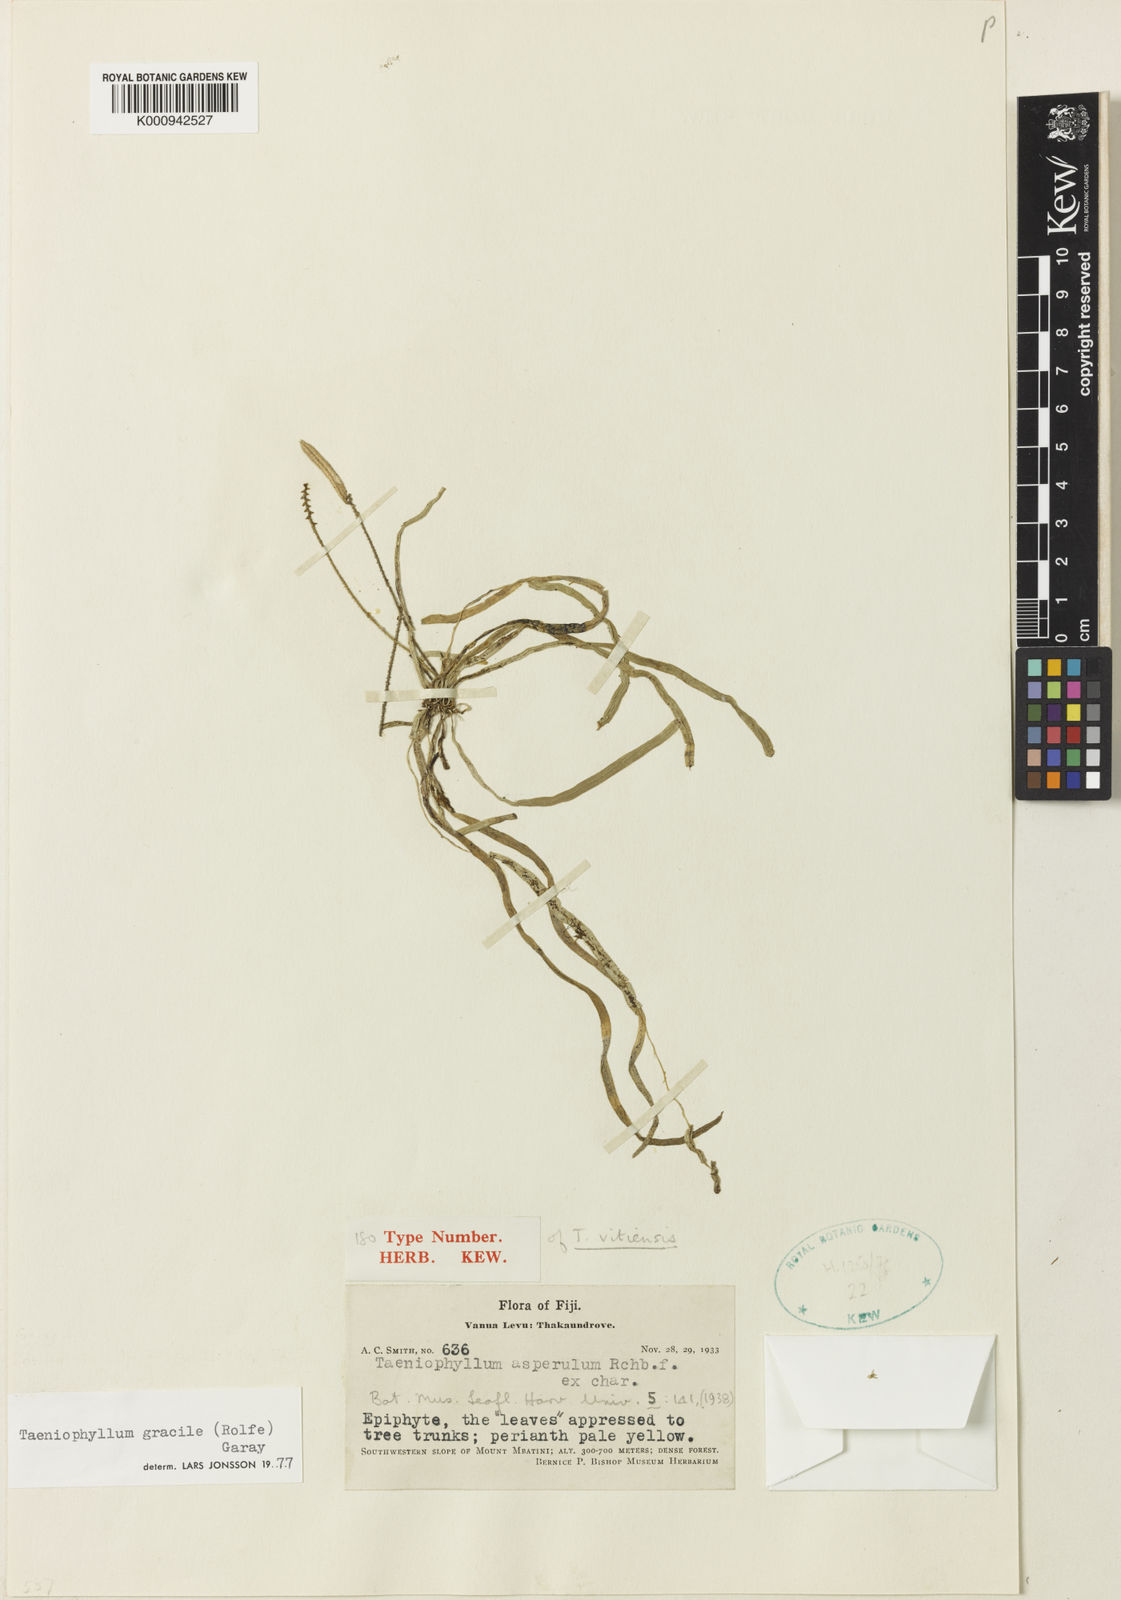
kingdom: Plantae
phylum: Tracheophyta
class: Liliopsida
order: Asparagales
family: Orchidaceae
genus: Taeniophyllum
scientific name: Taeniophyllum gracile
